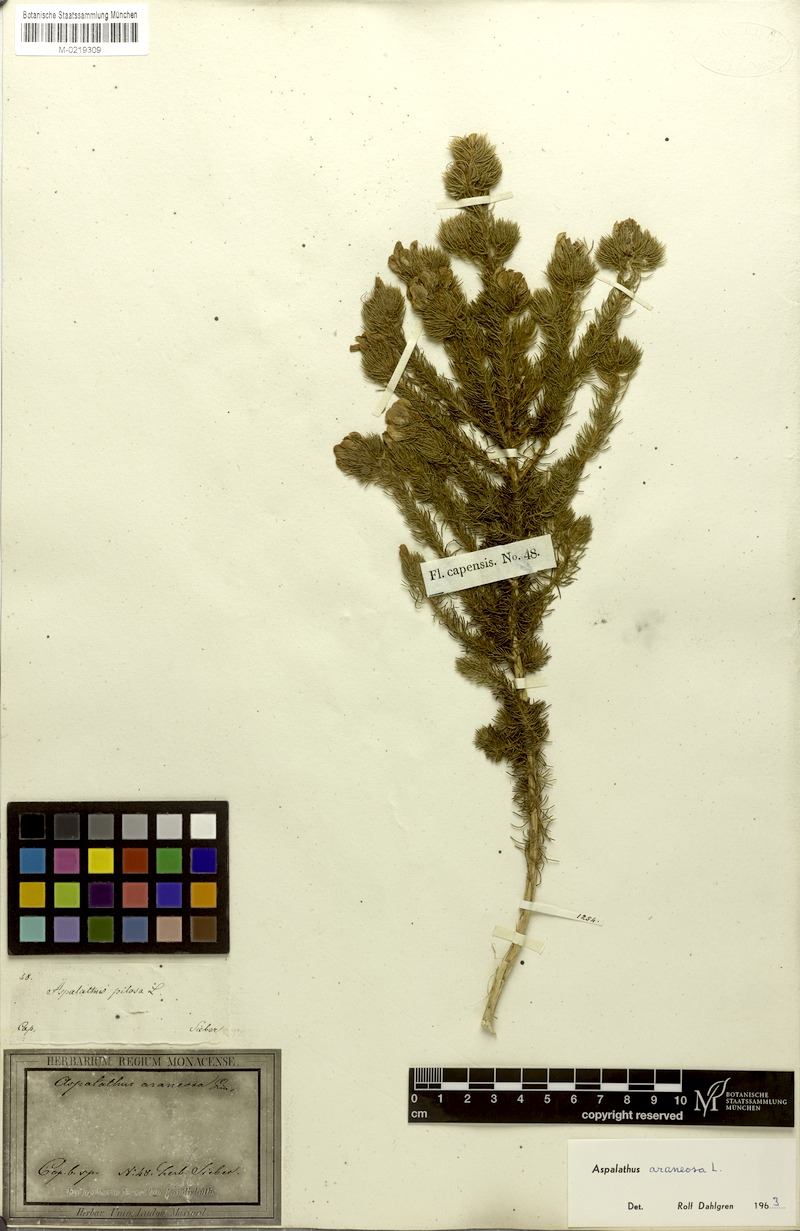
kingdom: Plantae
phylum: Tracheophyta
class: Magnoliopsida
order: Fabales
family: Fabaceae
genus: Aspalathus
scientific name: Aspalathus araneosa
